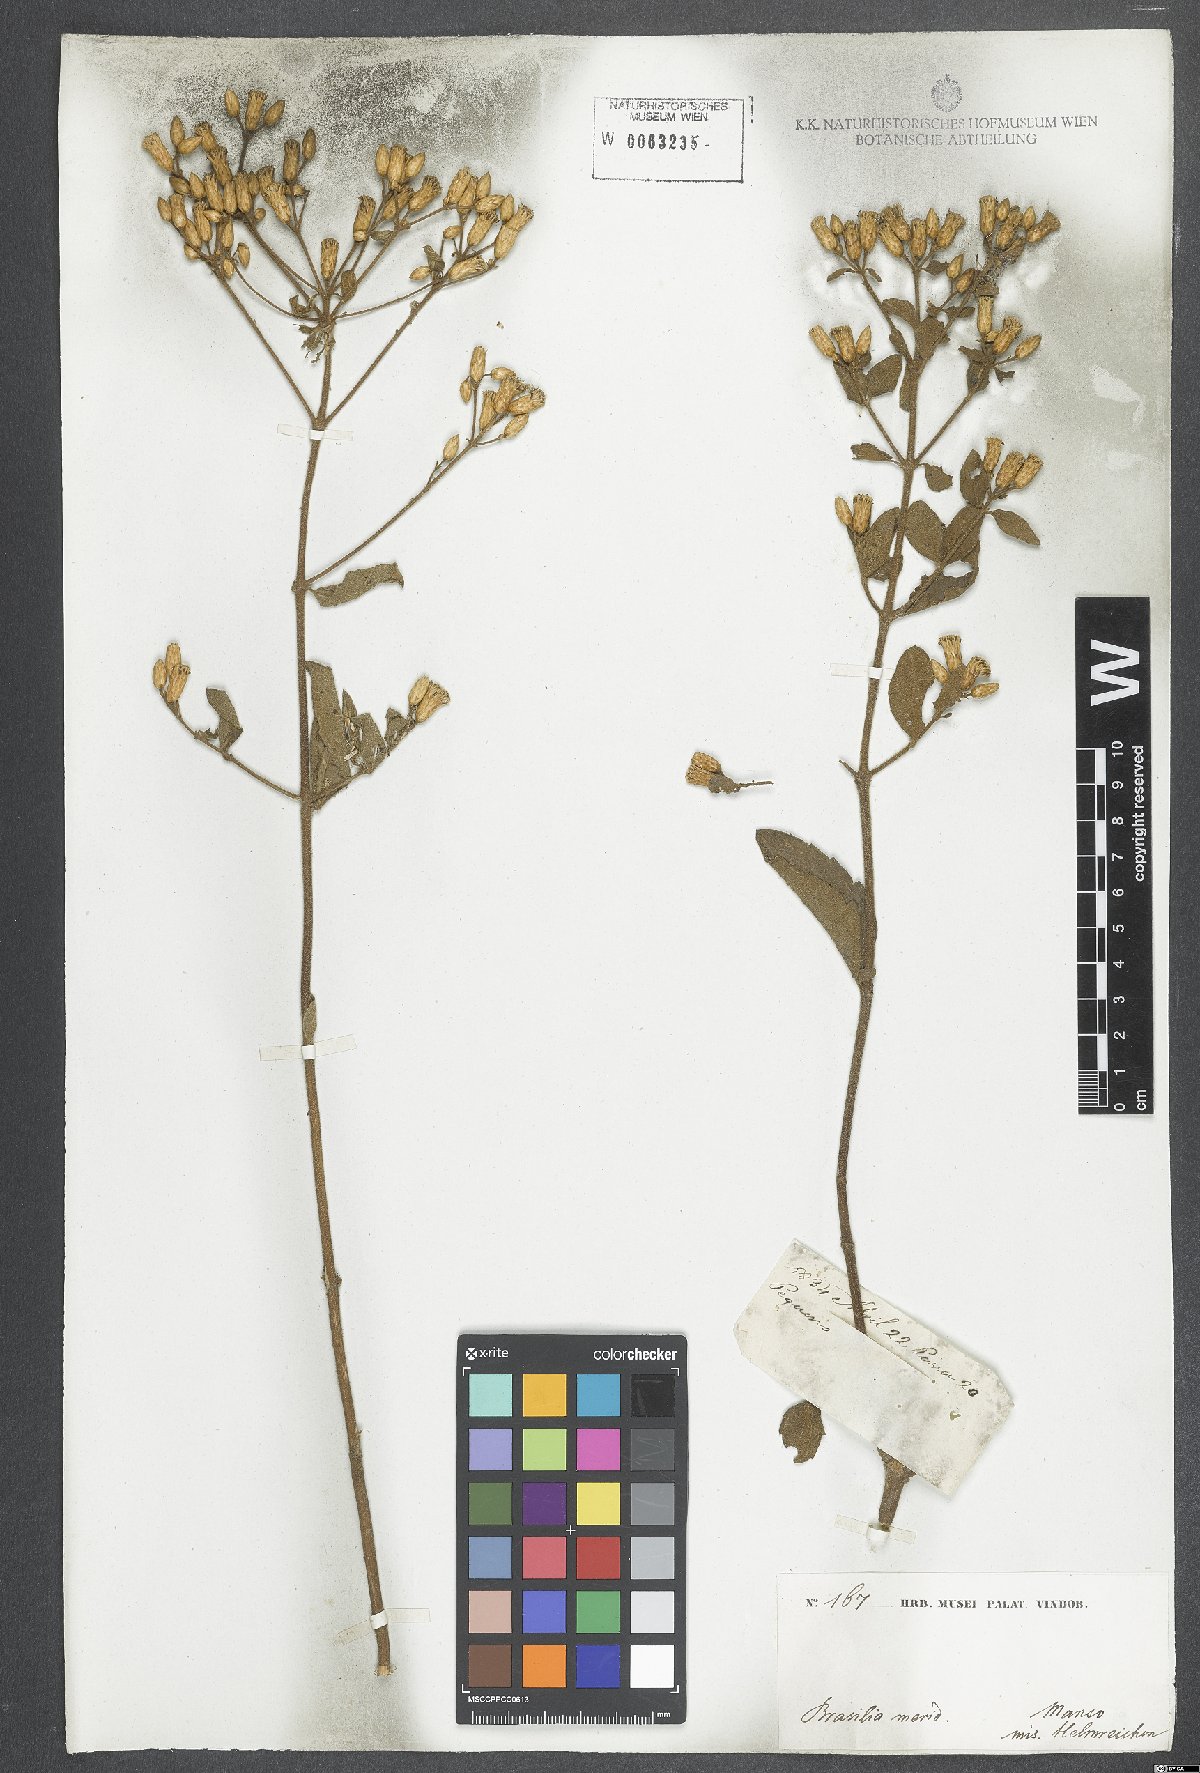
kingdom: Plantae
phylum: Tracheophyta
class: Magnoliopsida
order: Asterales
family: Asteraceae
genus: Chromolaena
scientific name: Chromolaena squalida
